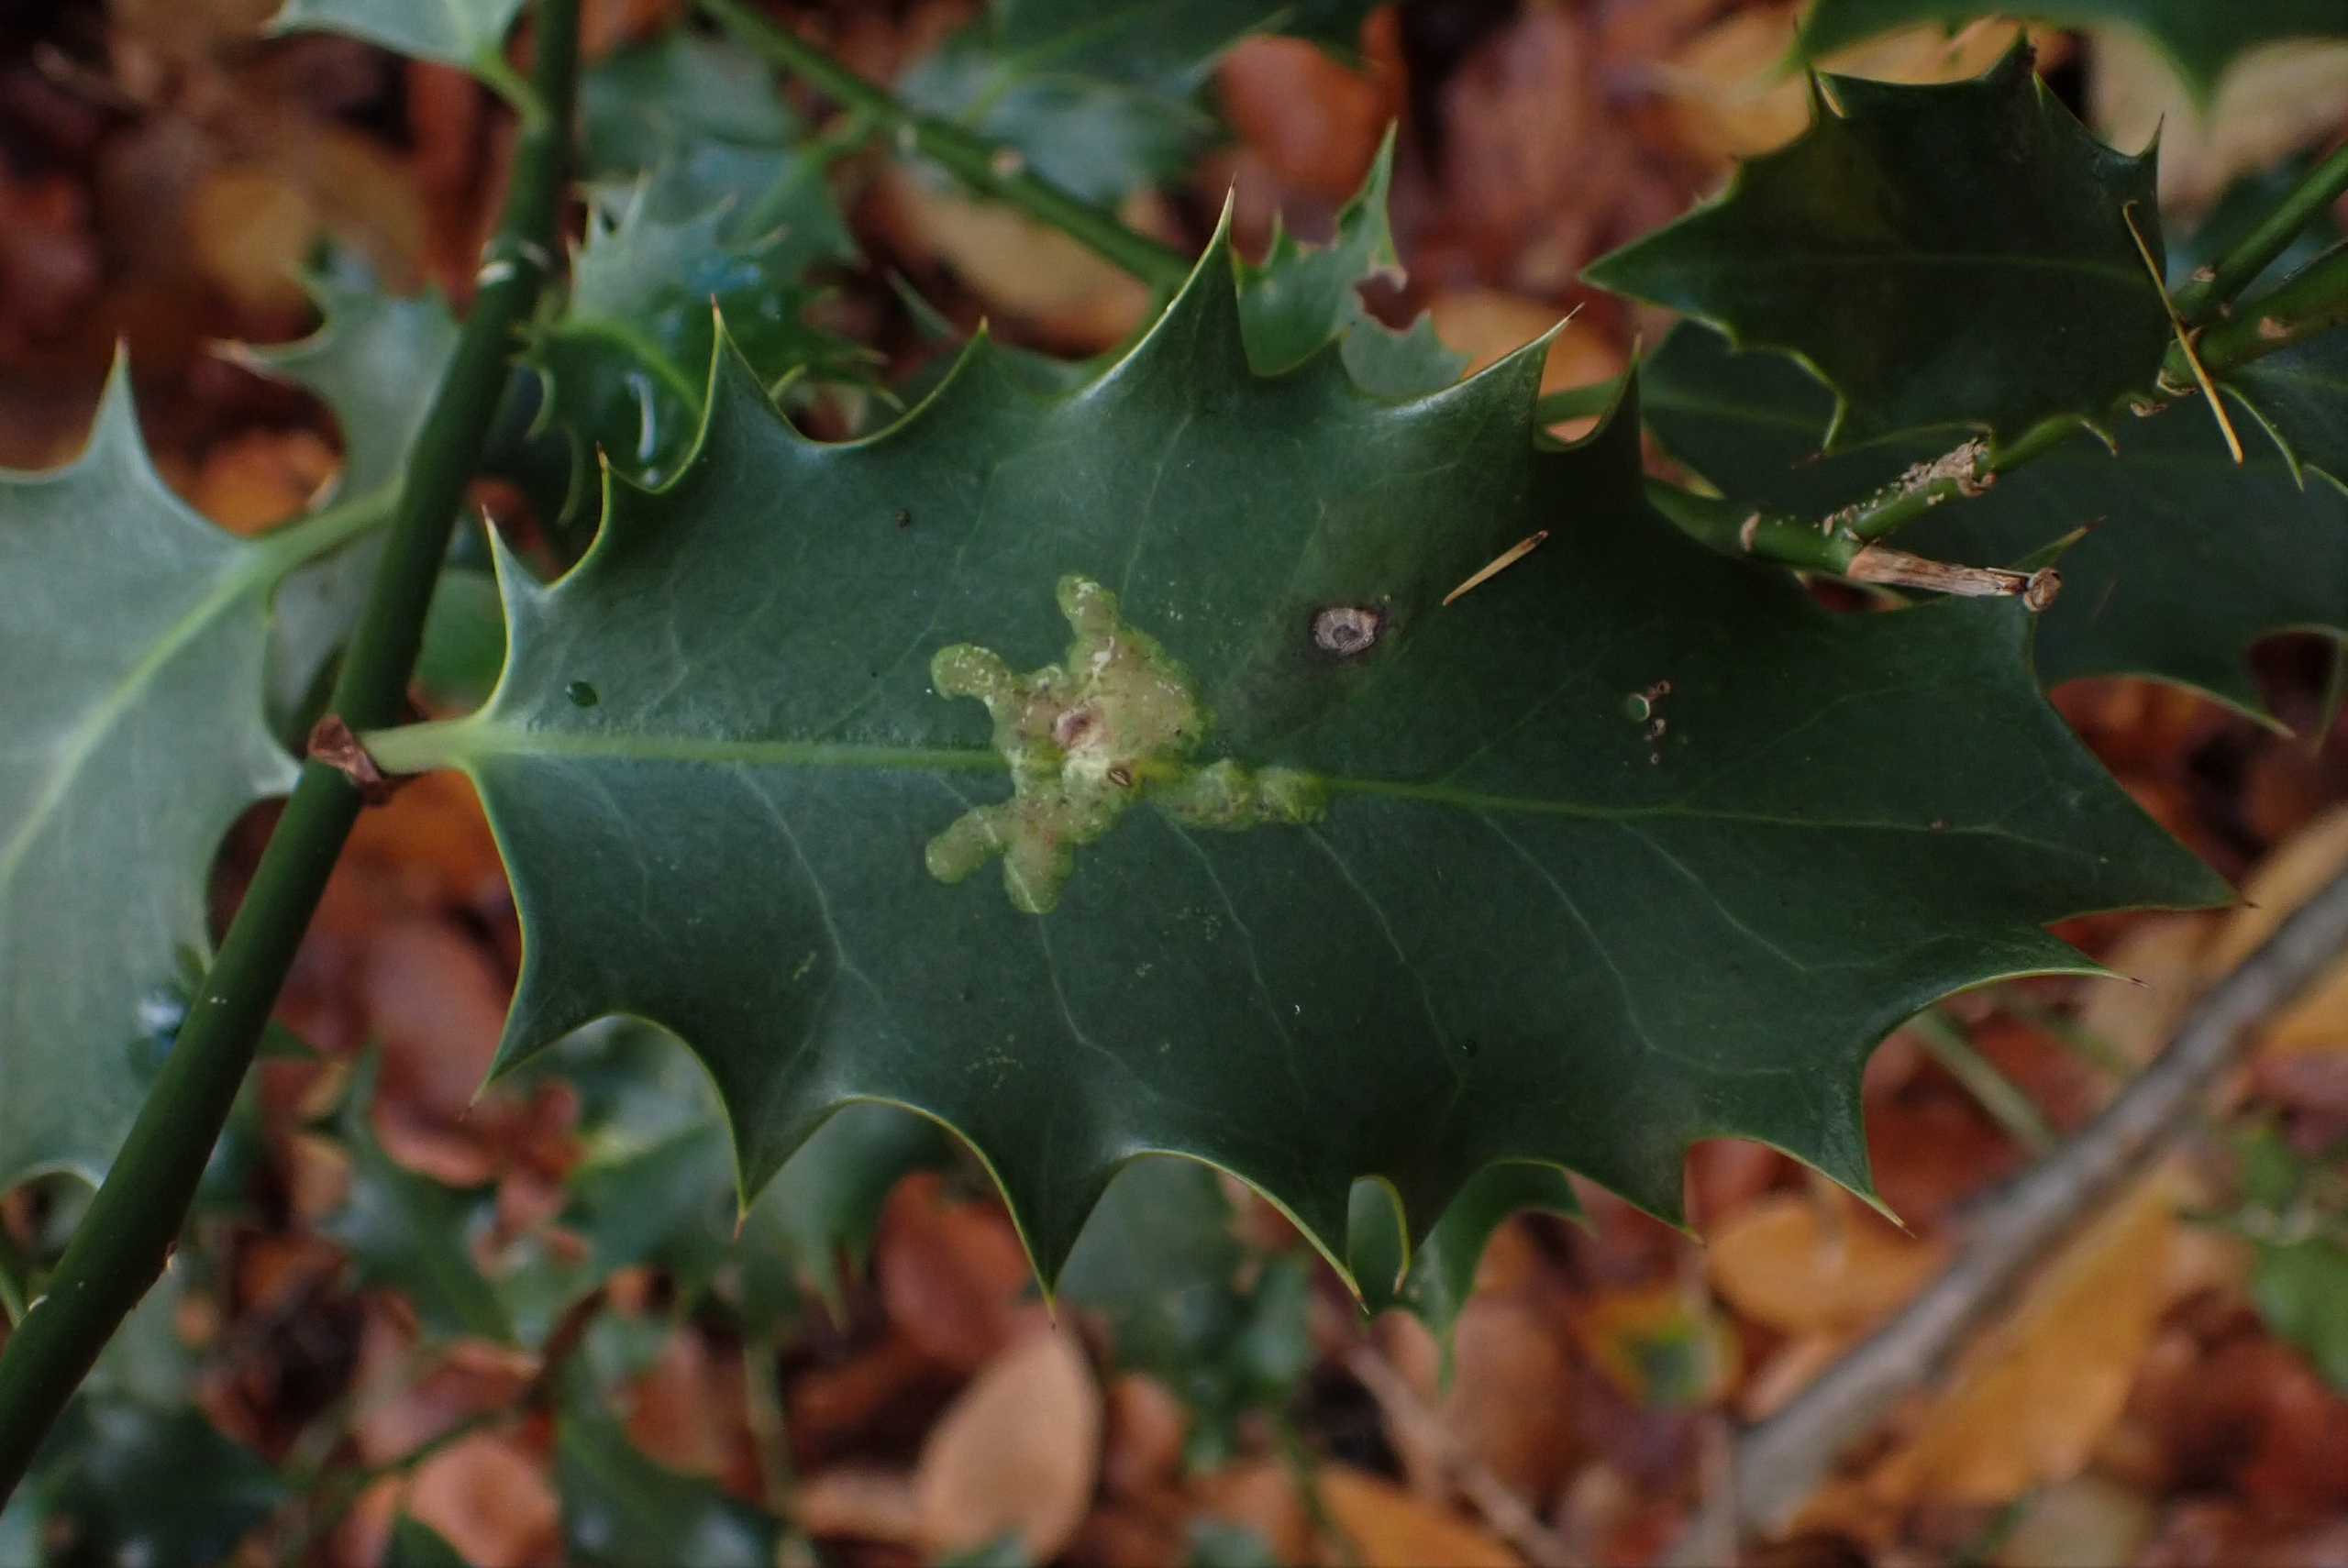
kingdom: Animalia
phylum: Arthropoda
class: Insecta
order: Diptera
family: Agromyzidae
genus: Phytomyza
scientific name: Phytomyza ilicis
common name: Kristtornminérflue
